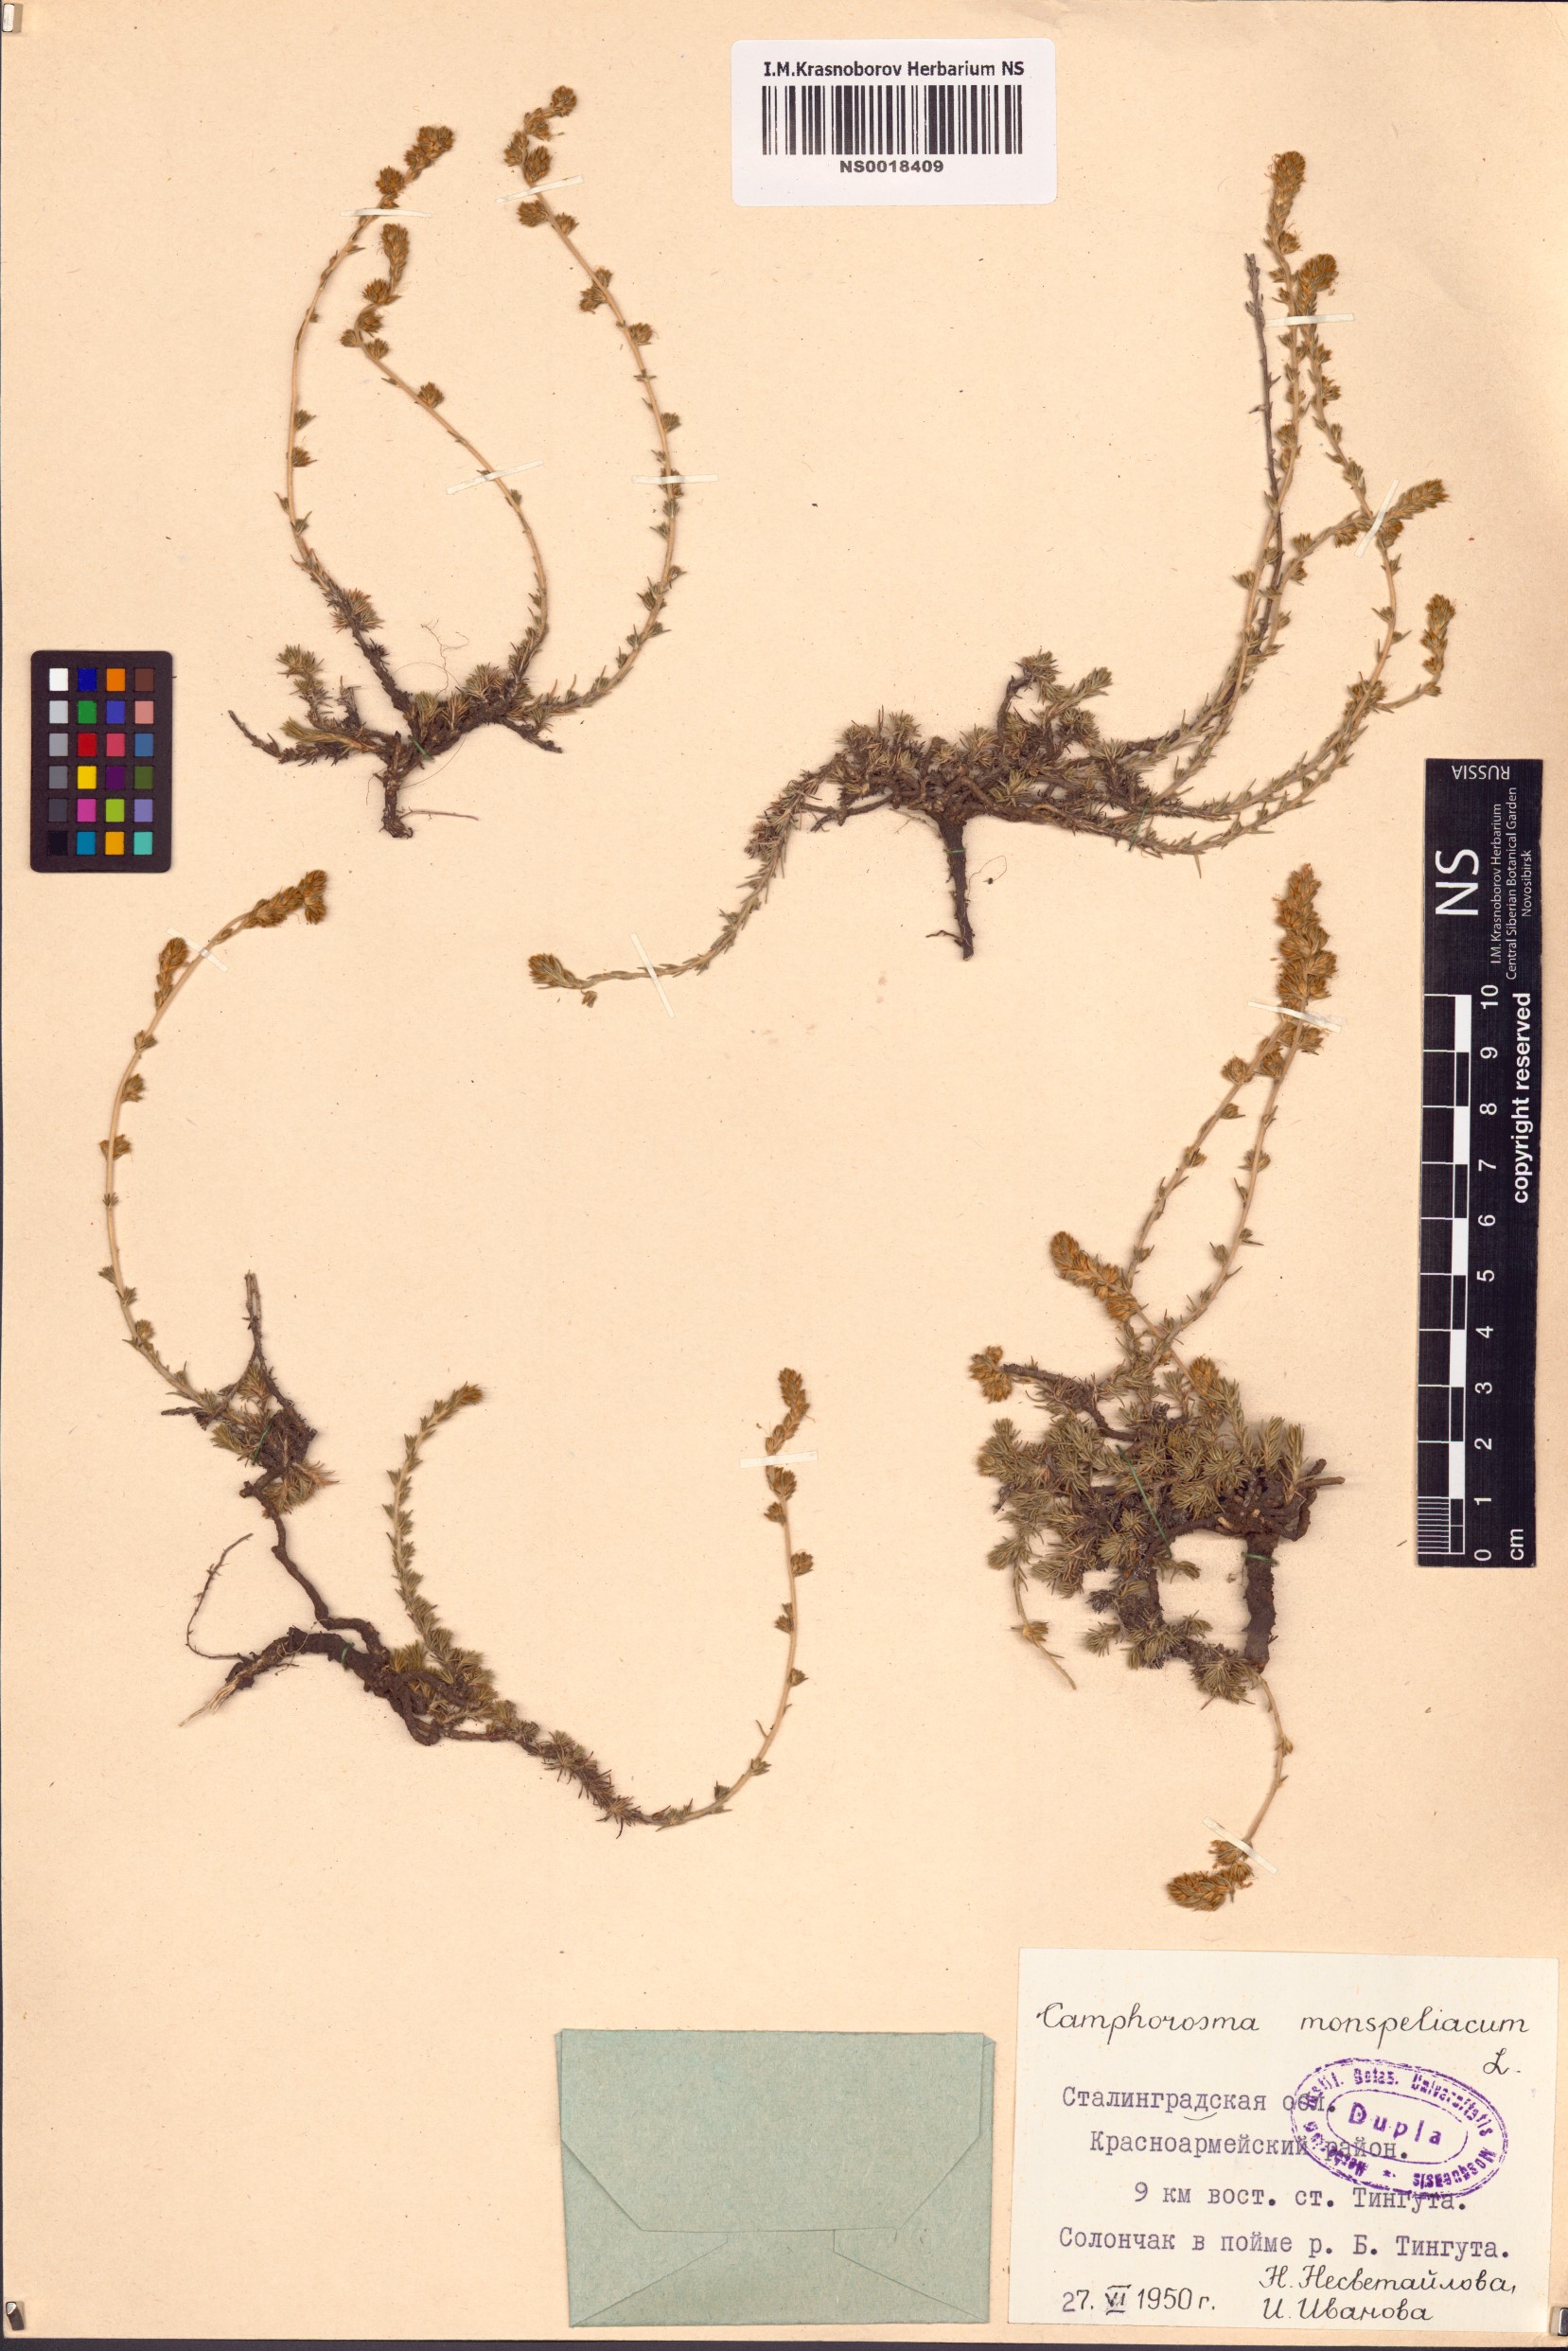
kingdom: Plantae
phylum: Tracheophyta
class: Magnoliopsida
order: Caryophyllales
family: Amaranthaceae
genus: Camphorosma
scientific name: Camphorosma monspeliaca
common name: Camphorfume
